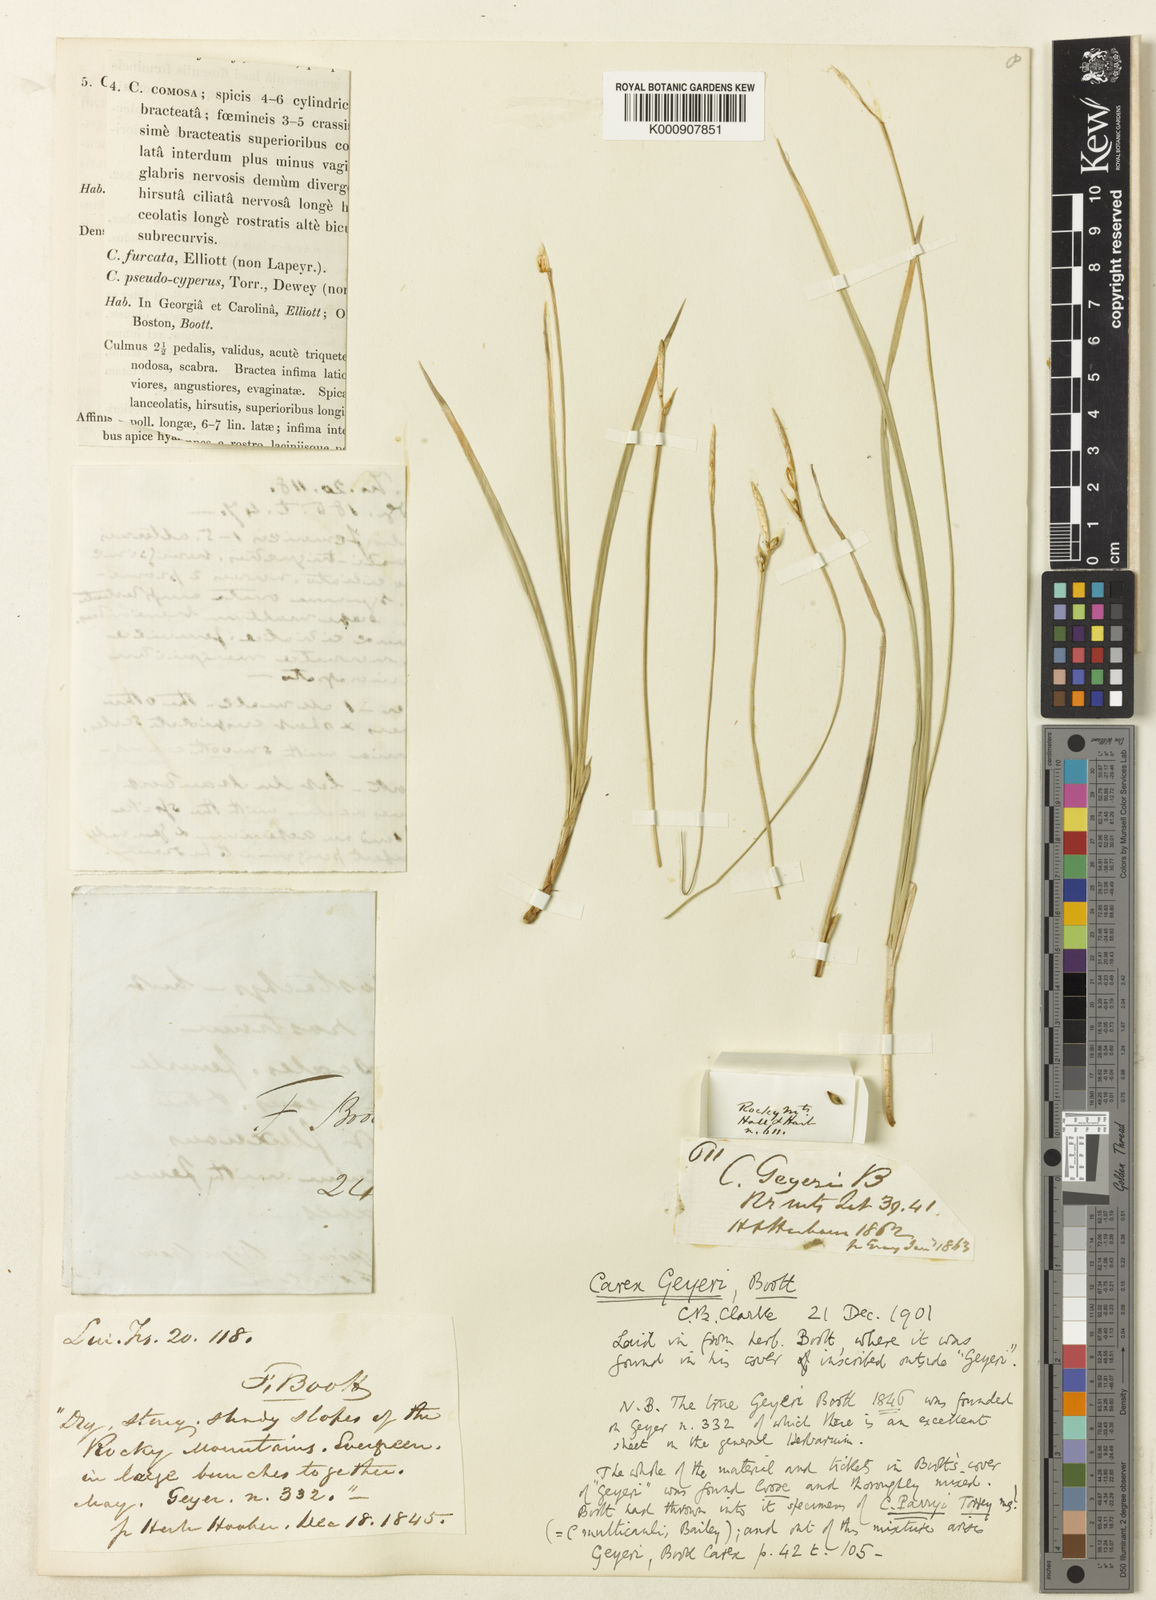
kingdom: Plantae
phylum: Tracheophyta
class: Liliopsida
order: Poales
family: Cyperaceae
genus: Carex
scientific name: Carex geyeri
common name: Elk sedge
